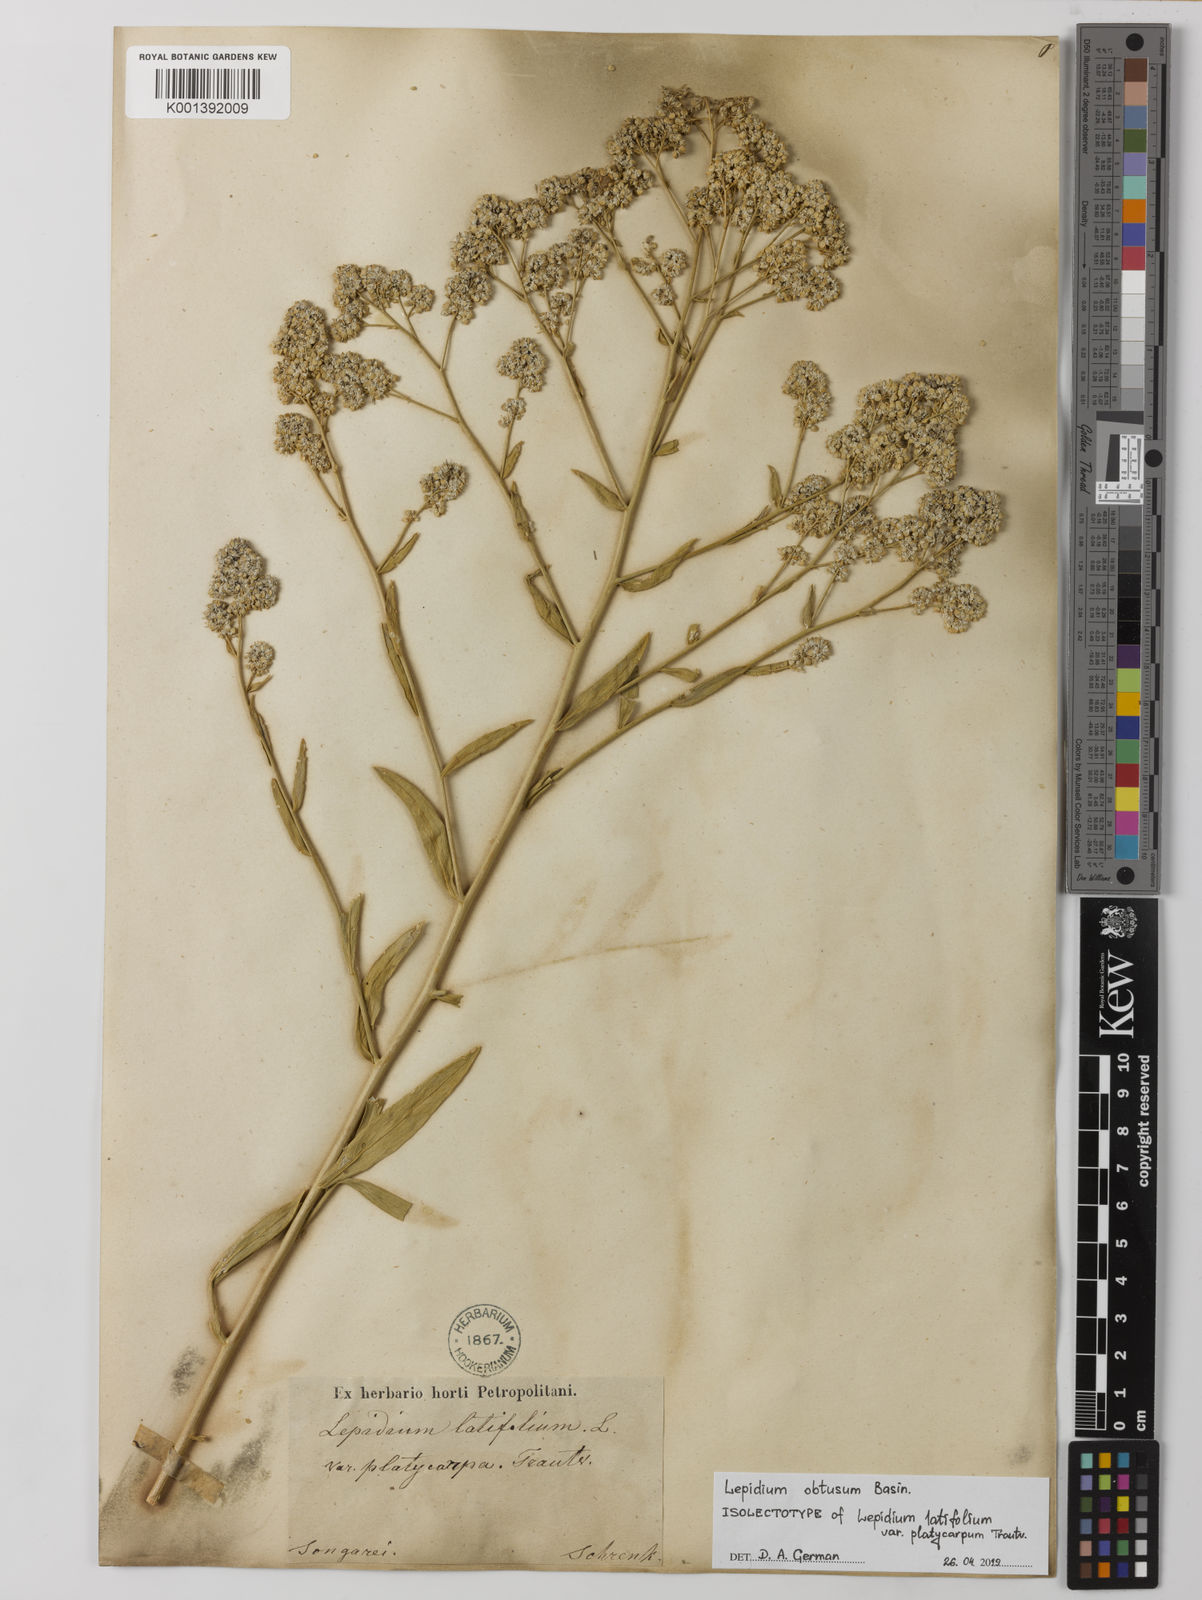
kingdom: Plantae
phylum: Tracheophyta
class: Magnoliopsida
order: Brassicales
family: Brassicaceae
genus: Lepidium
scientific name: Lepidium obtusum
